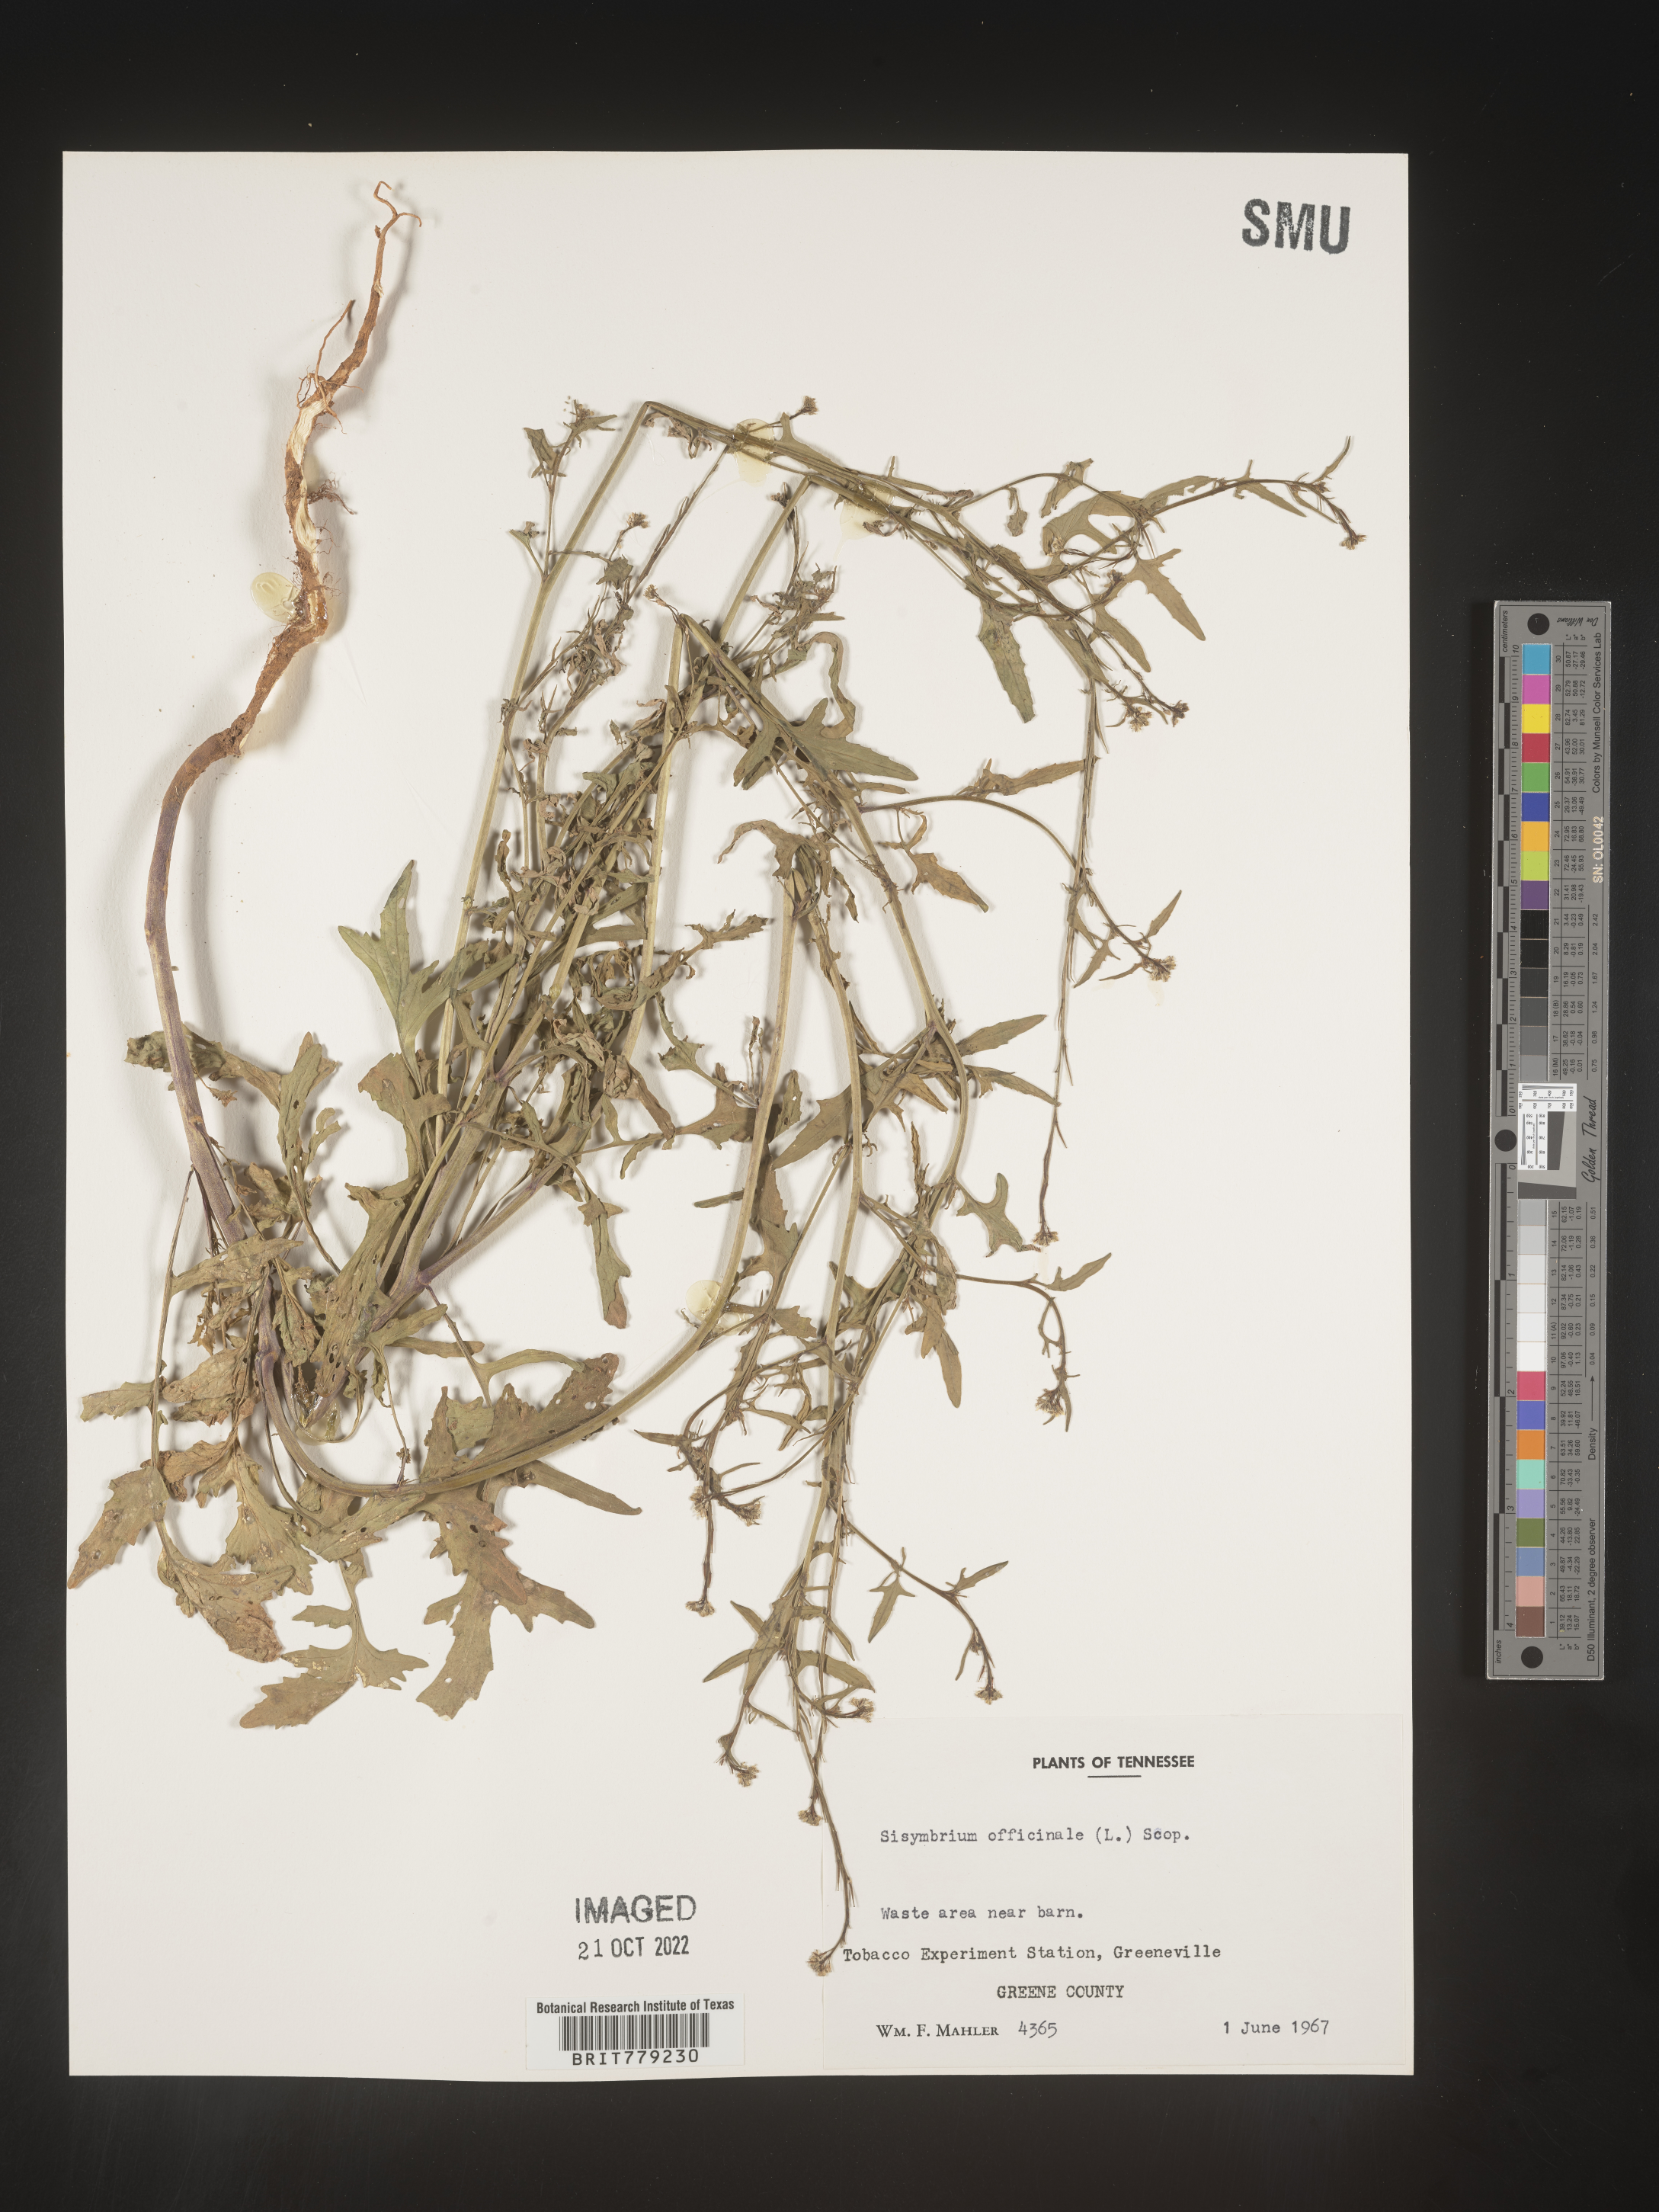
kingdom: Plantae
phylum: Tracheophyta
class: Magnoliopsida
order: Brassicales
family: Brassicaceae
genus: Sisymbrium
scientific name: Sisymbrium officinale
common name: Hedge mustard
